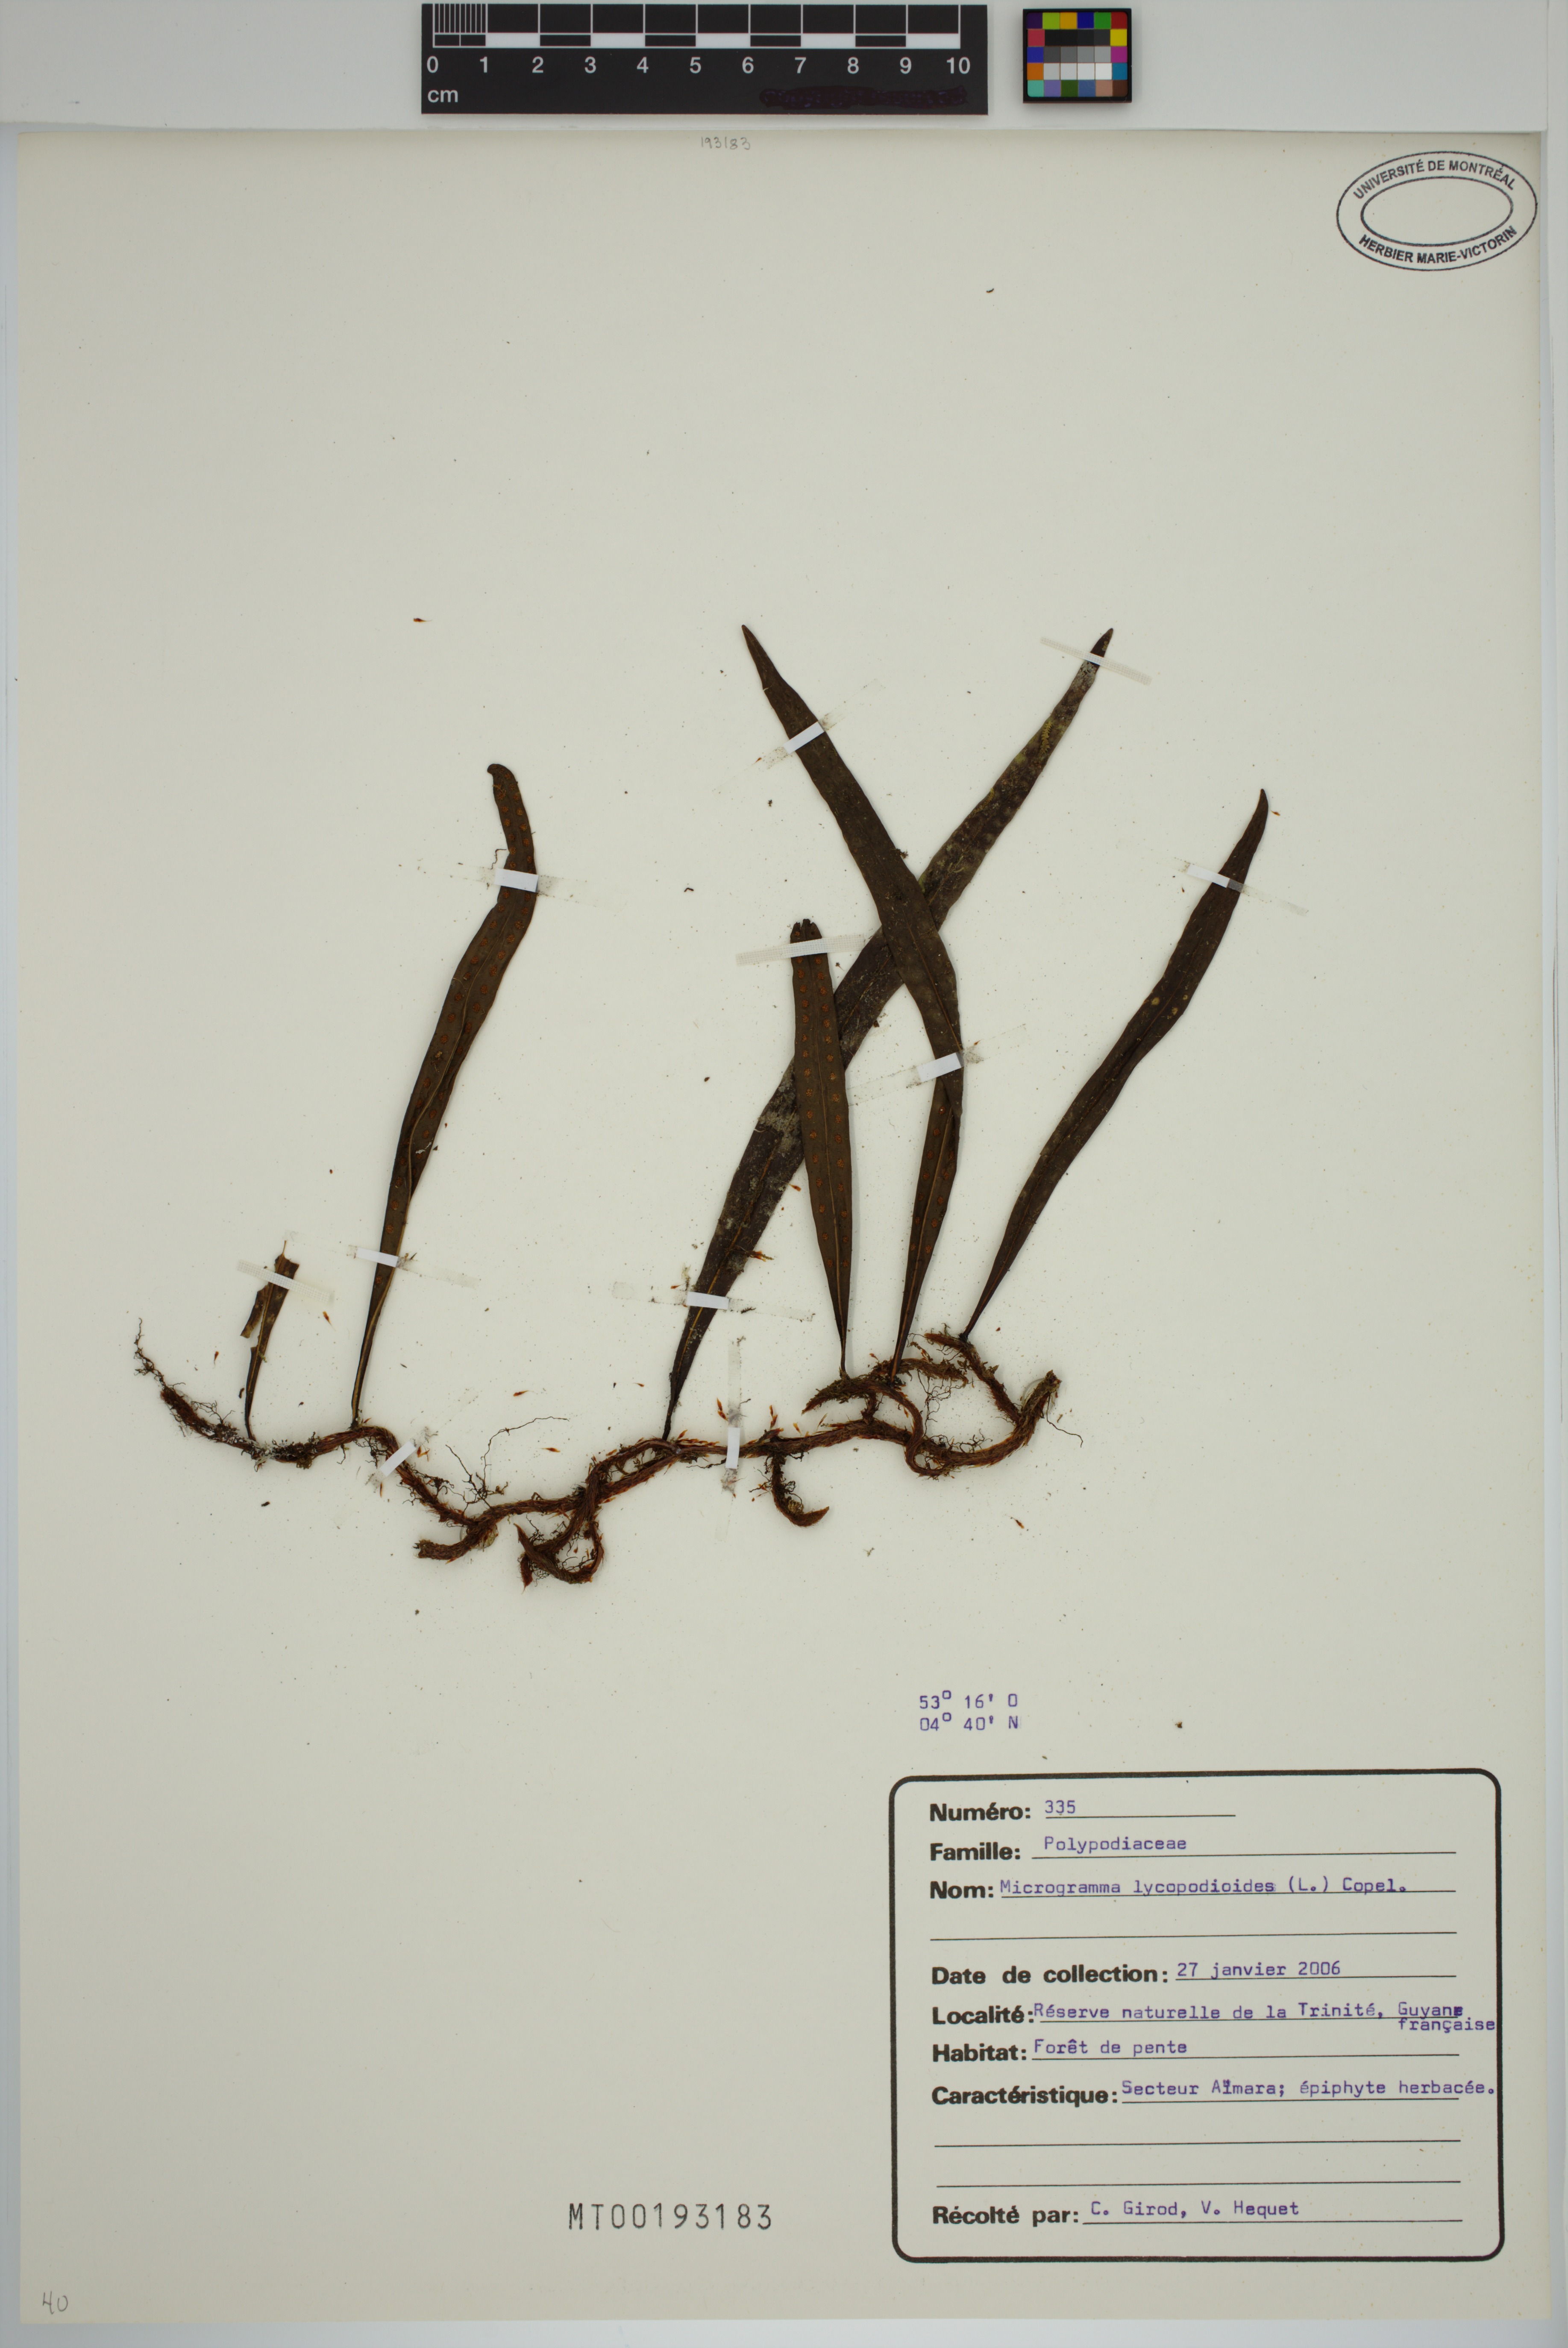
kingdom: Plantae
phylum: Tracheophyta
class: Polypodiopsida
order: Polypodiales
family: Polypodiaceae
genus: Microgramma
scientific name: Microgramma lycopodioides
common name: Bastard catclaw
